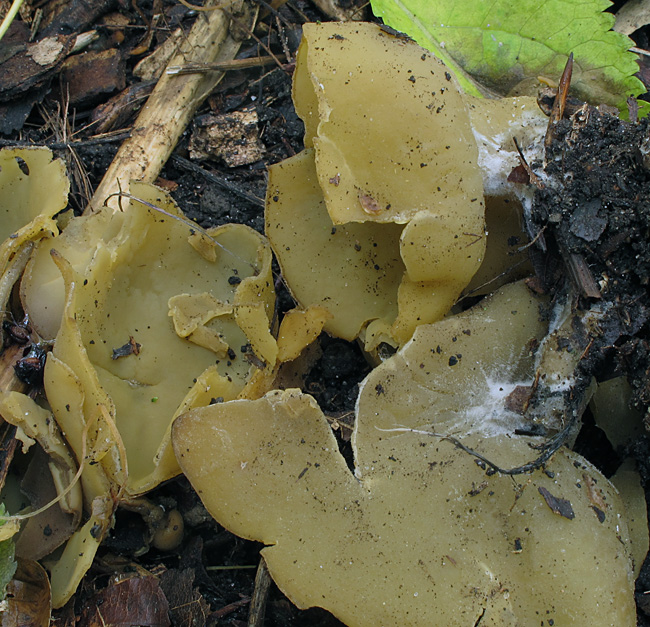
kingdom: Fungi
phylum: Ascomycota
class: Pezizomycetes
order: Pezizales
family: Pyronemataceae
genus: Sowerbyella
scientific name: Sowerbyella radiculata
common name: grøngul rodbæger
